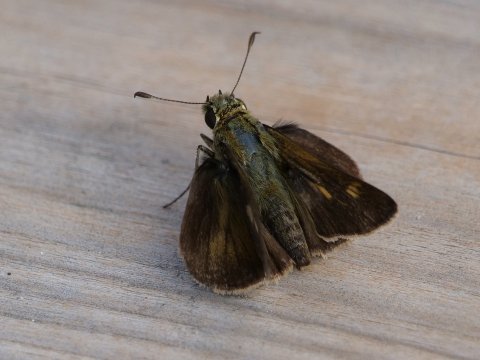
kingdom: Animalia
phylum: Arthropoda
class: Insecta
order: Lepidoptera
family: Hesperiidae
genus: Polites
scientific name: Polites egeremet
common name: Northern Broken-Dash
